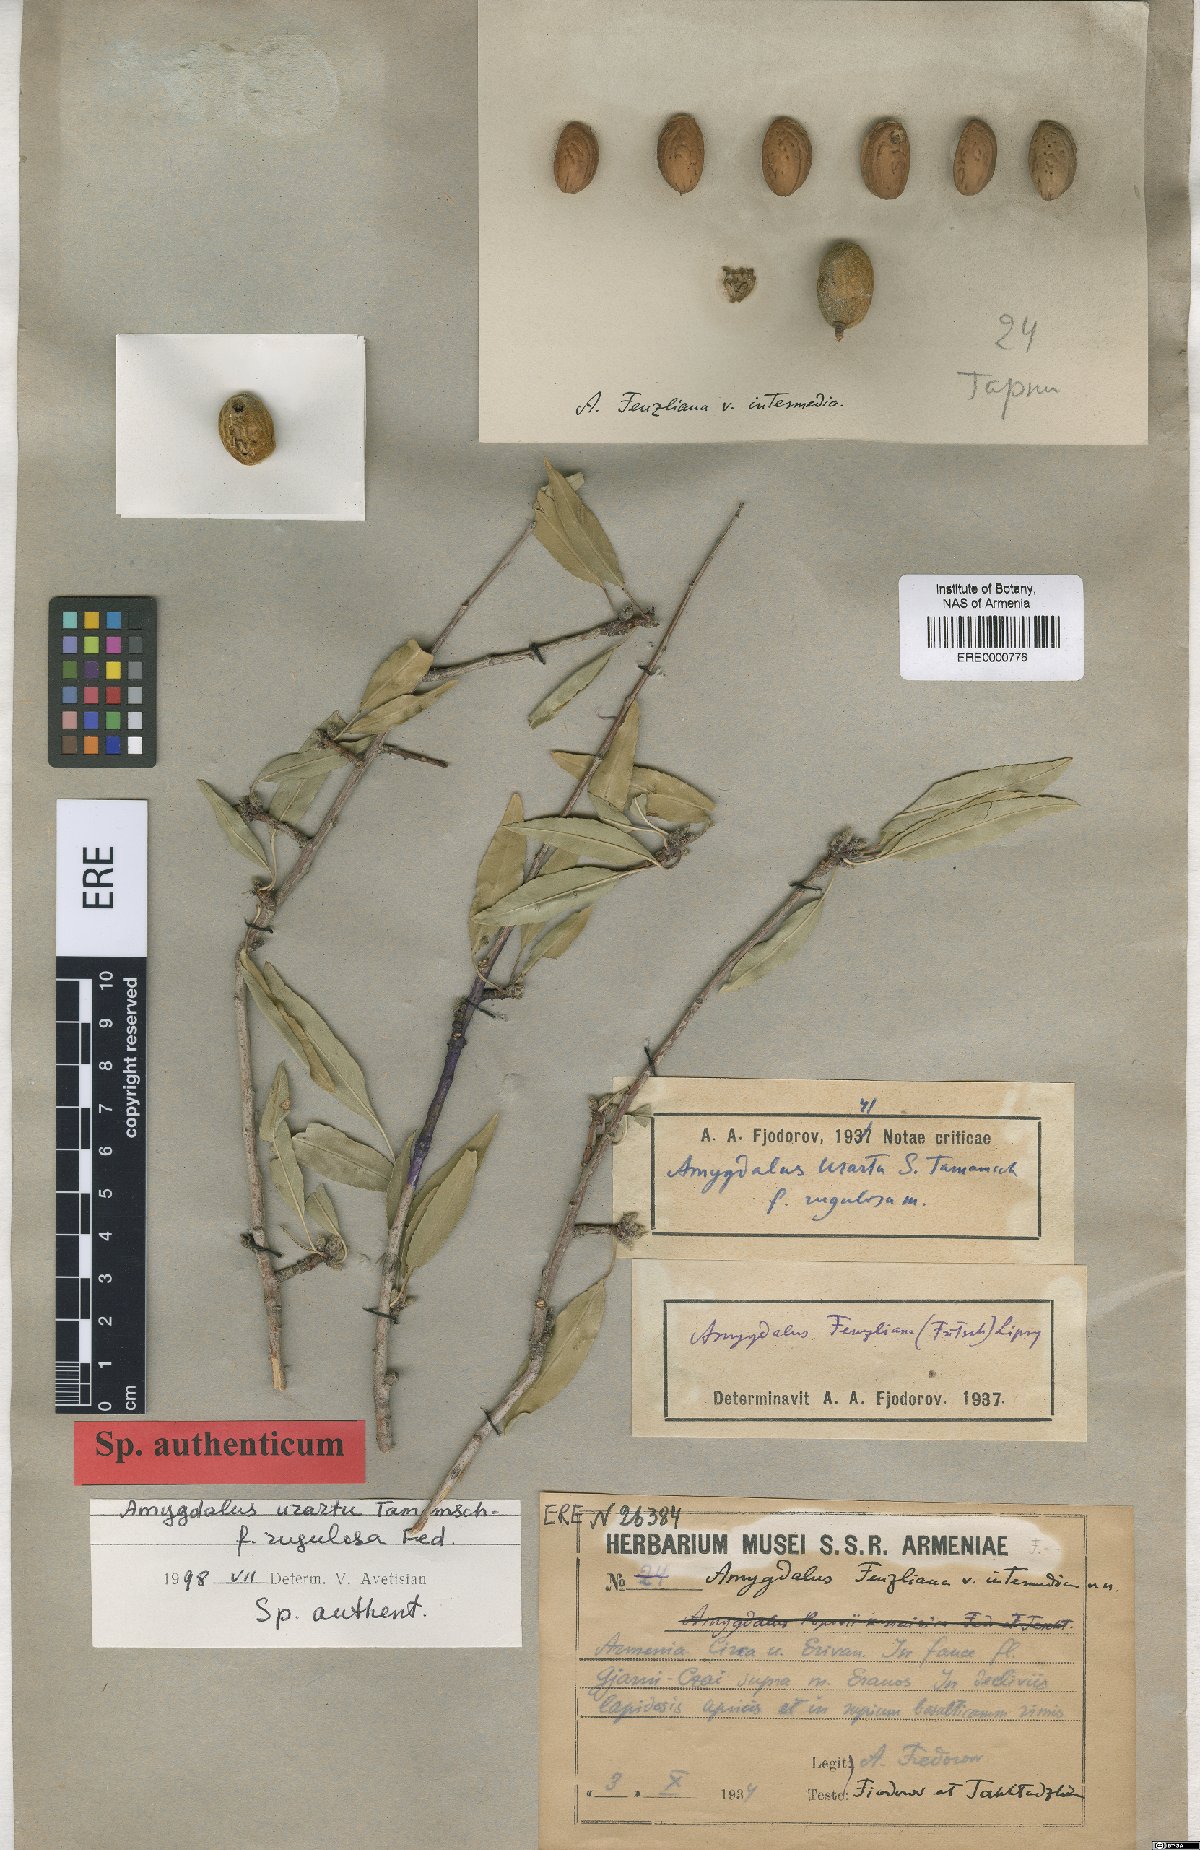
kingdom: Plantae
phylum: Tracheophyta
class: Magnoliopsida
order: Rosales
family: Rosaceae
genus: Prunus
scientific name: Prunus urartu
